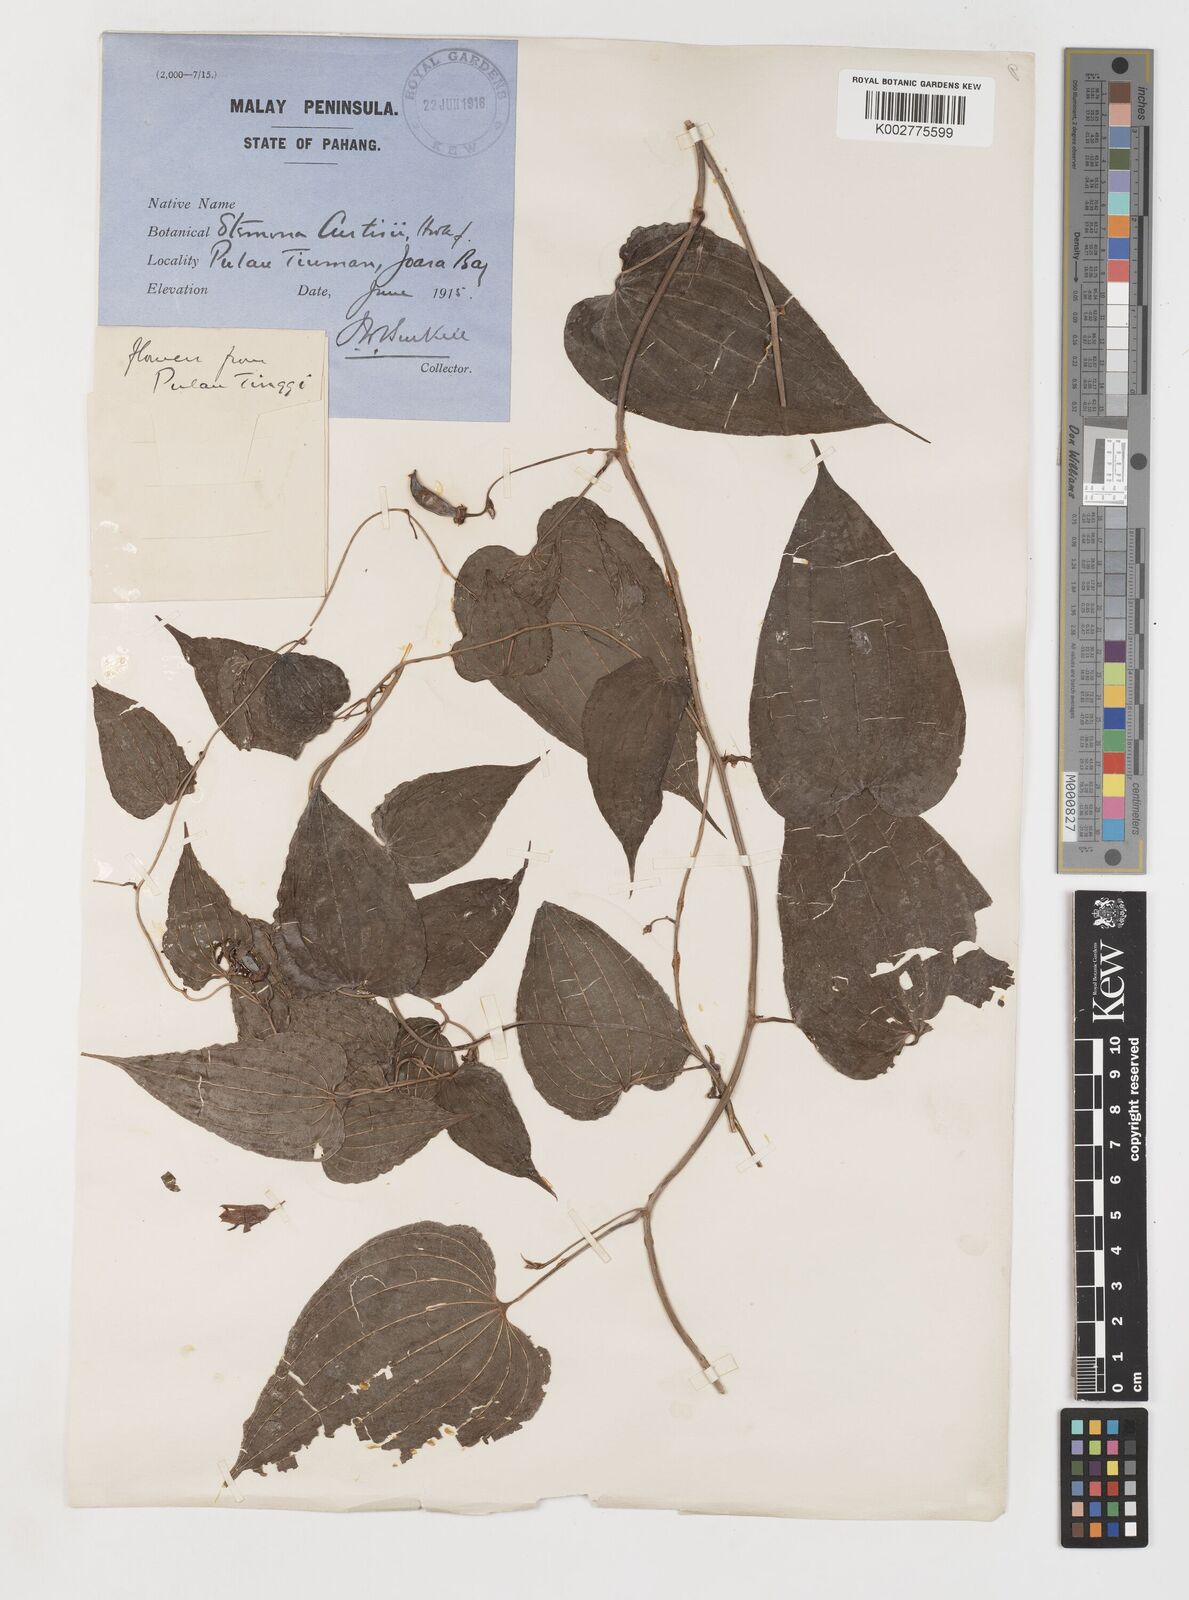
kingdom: Plantae
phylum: Tracheophyta
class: Liliopsida
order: Pandanales
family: Stemonaceae
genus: Stemona
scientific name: Stemona tuberosa
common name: Stemona
